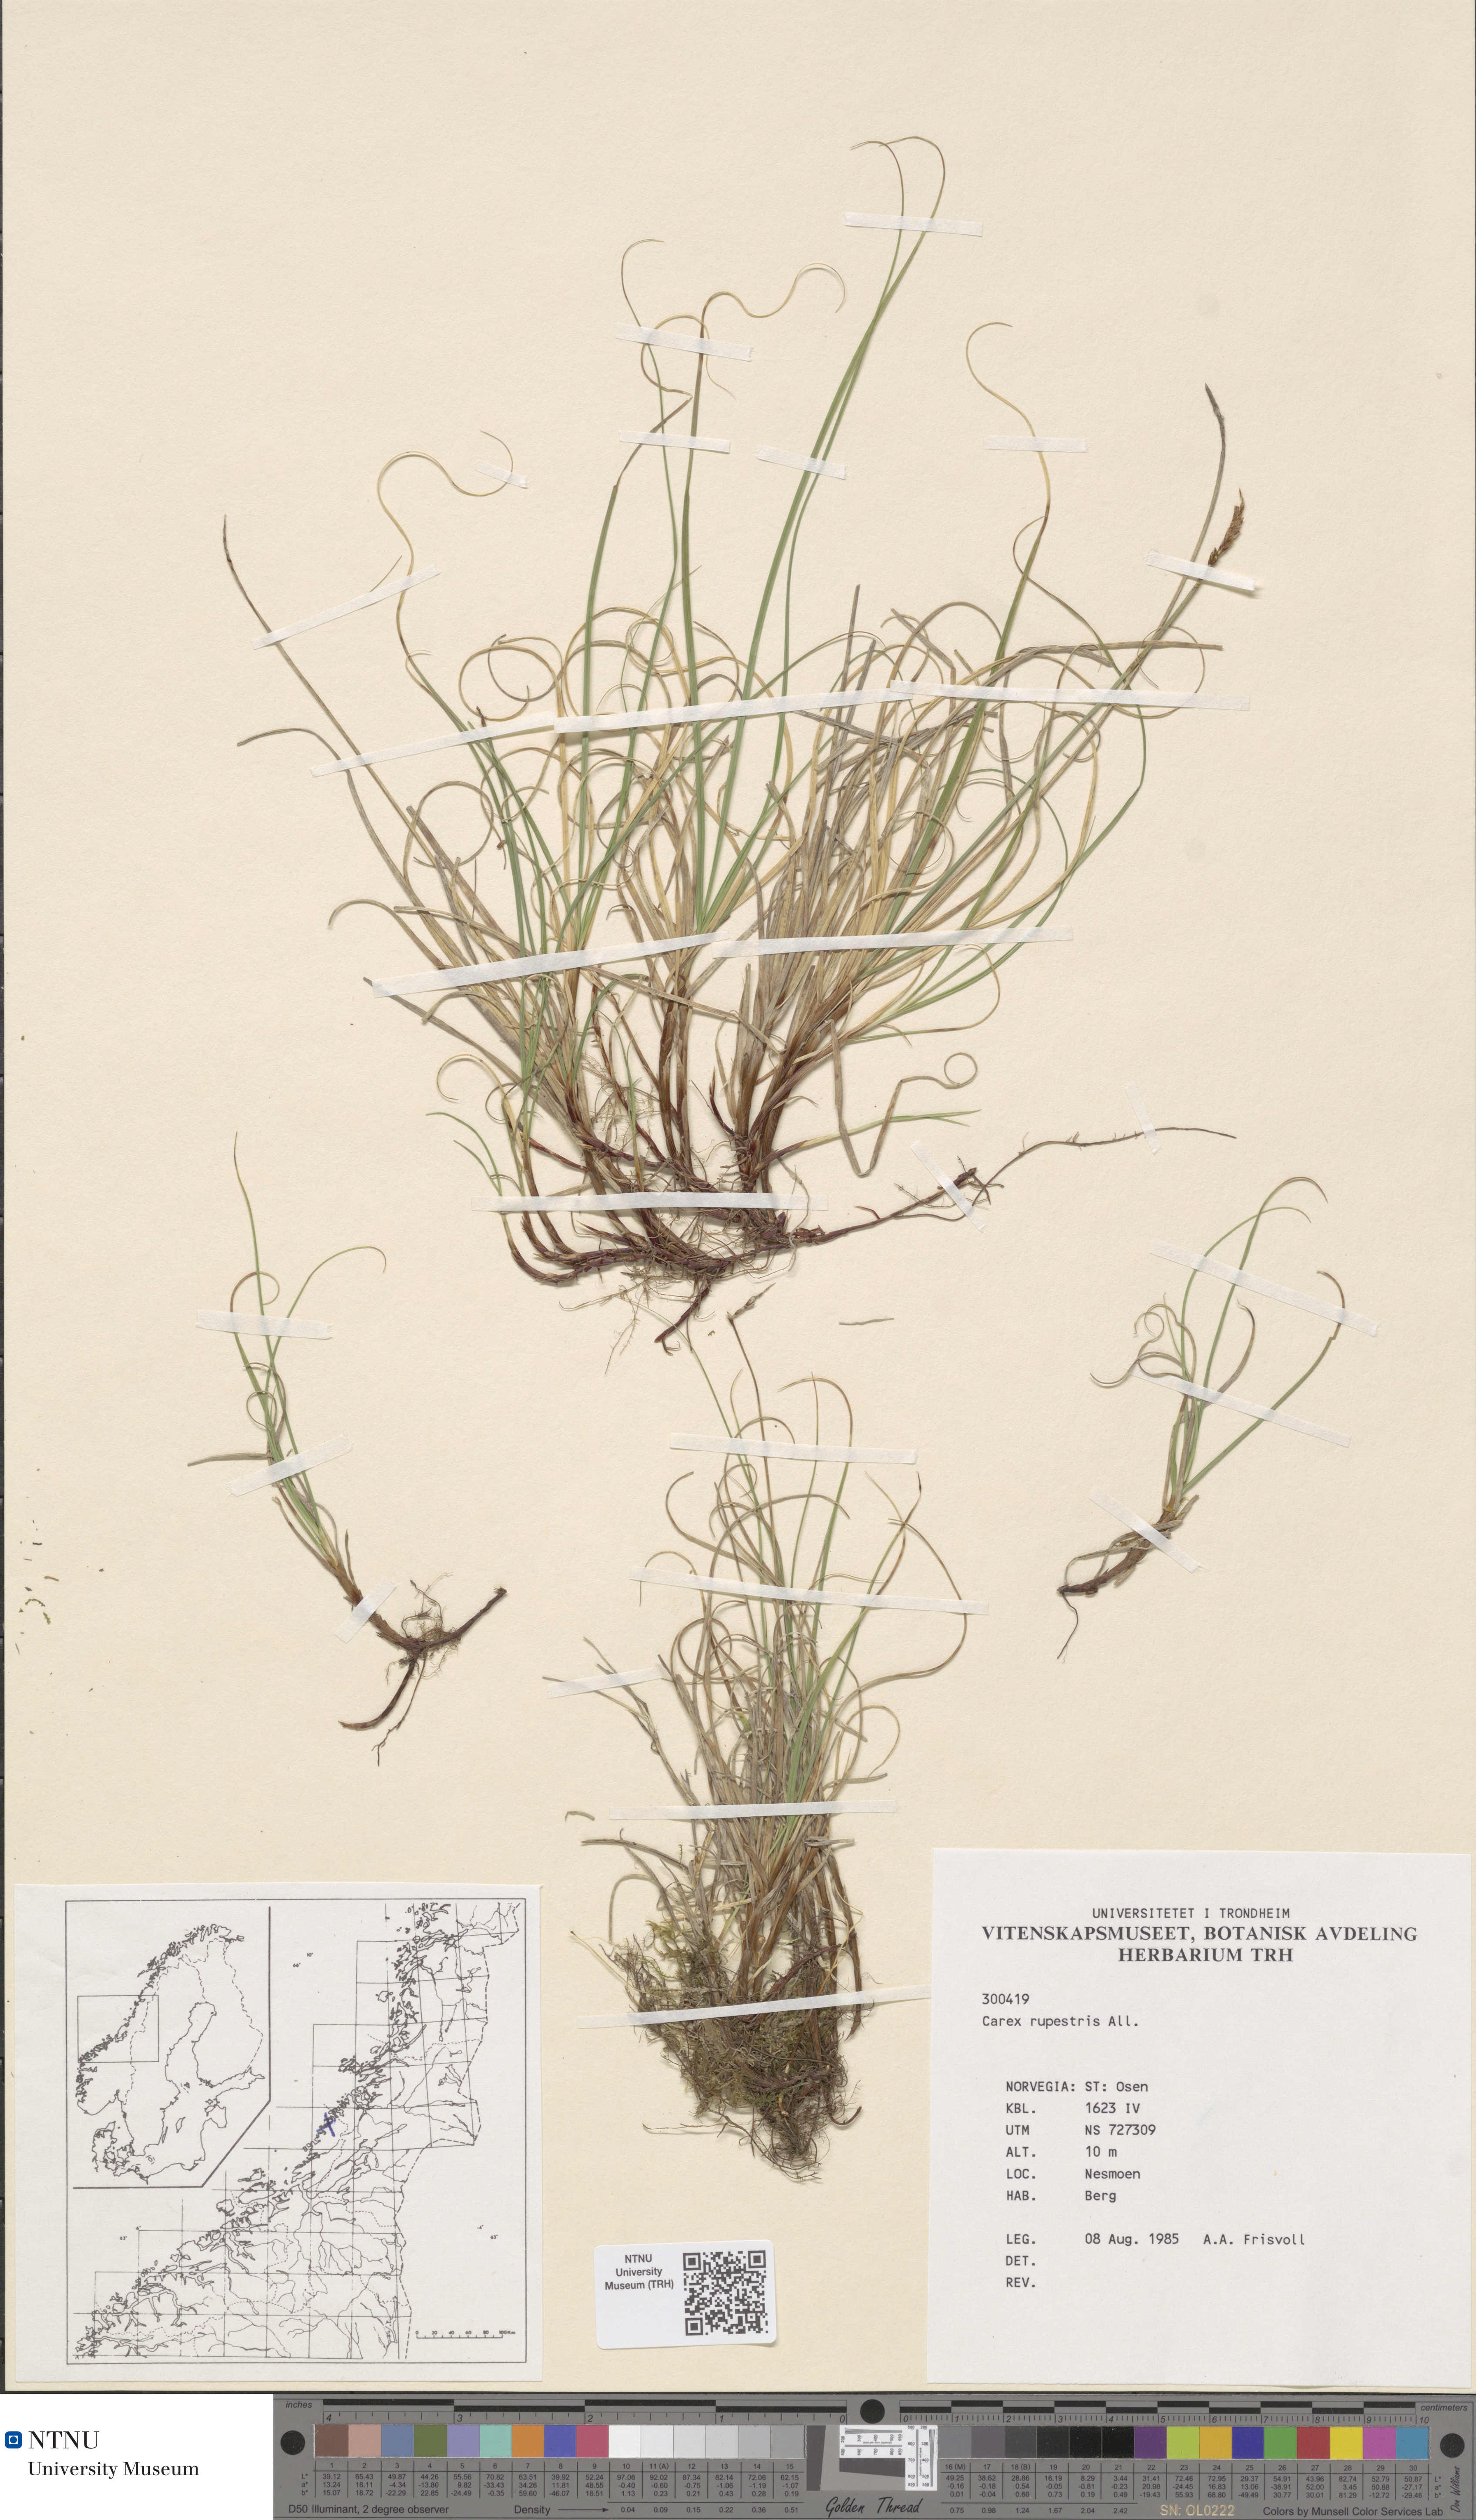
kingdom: Plantae
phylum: Tracheophyta
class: Liliopsida
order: Poales
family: Cyperaceae
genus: Carex
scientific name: Carex rupestris
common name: Rock sedge
